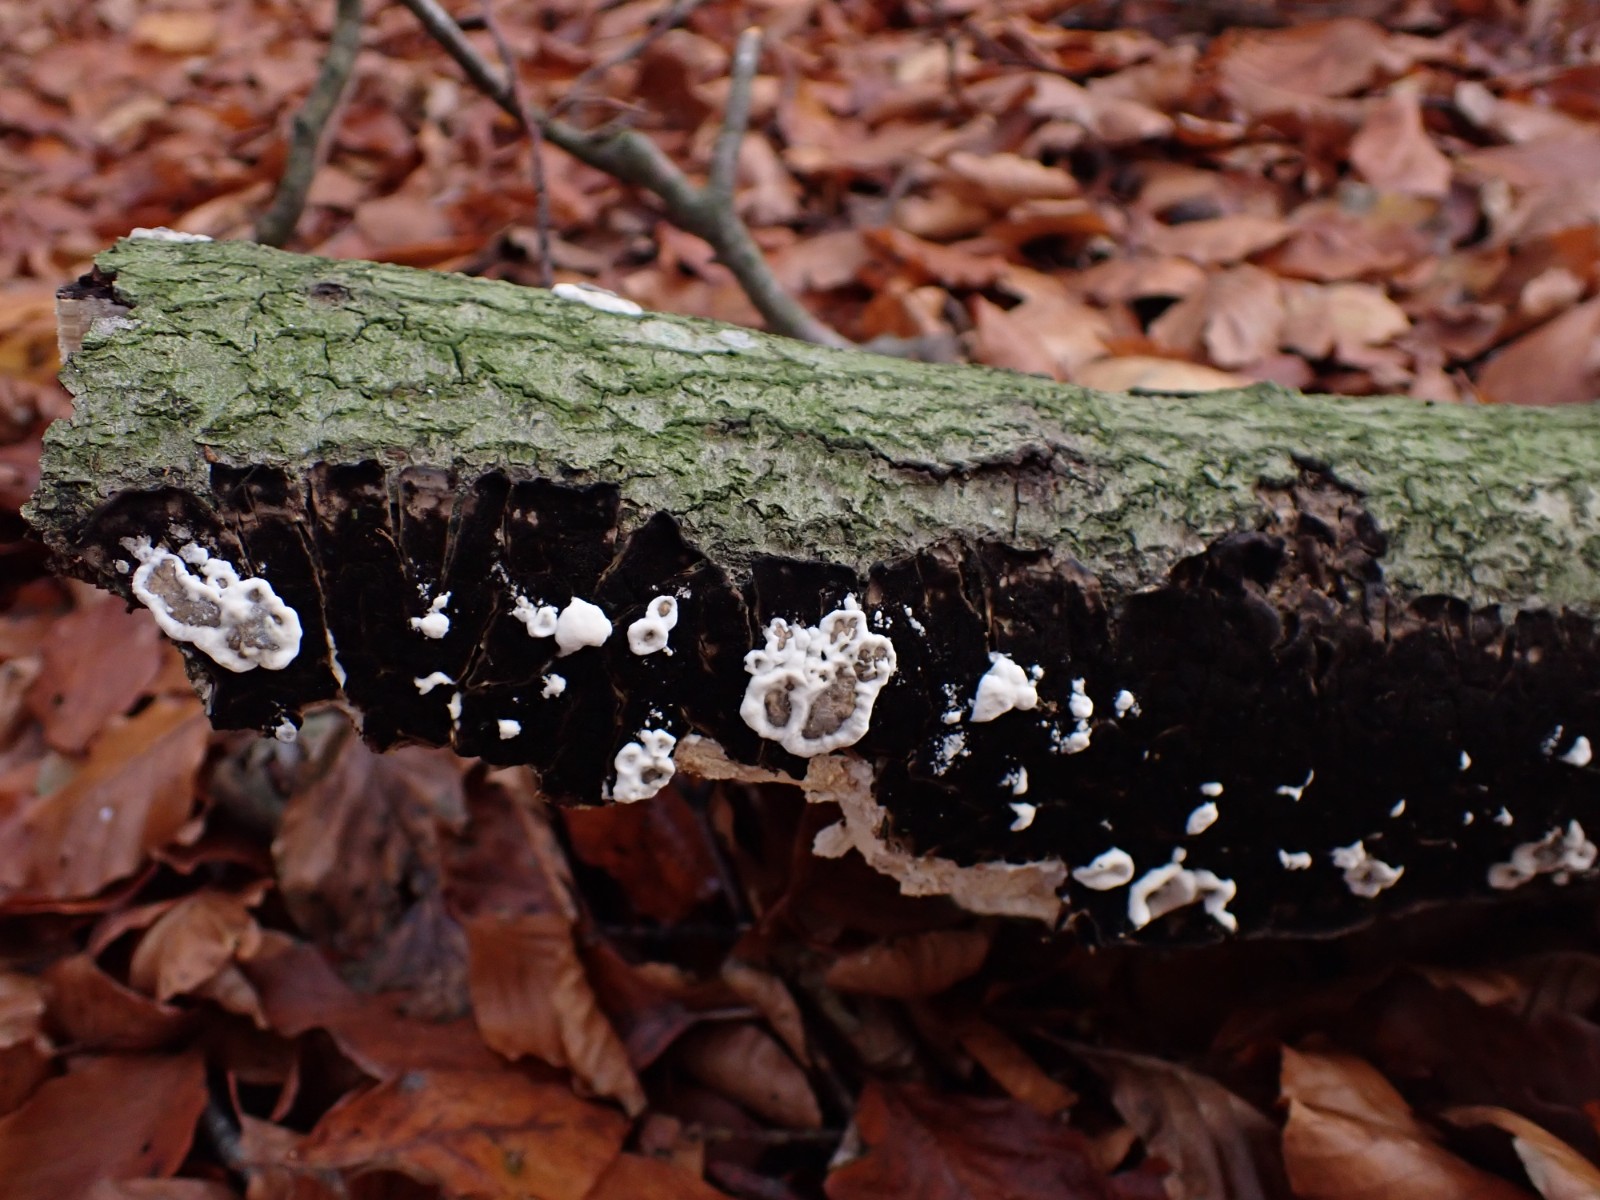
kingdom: Fungi
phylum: Ascomycota
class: Sordariomycetes
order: Xylariales
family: Xylariaceae
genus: Kretzschmaria
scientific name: Kretzschmaria deusta
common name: stor kulsvamp
